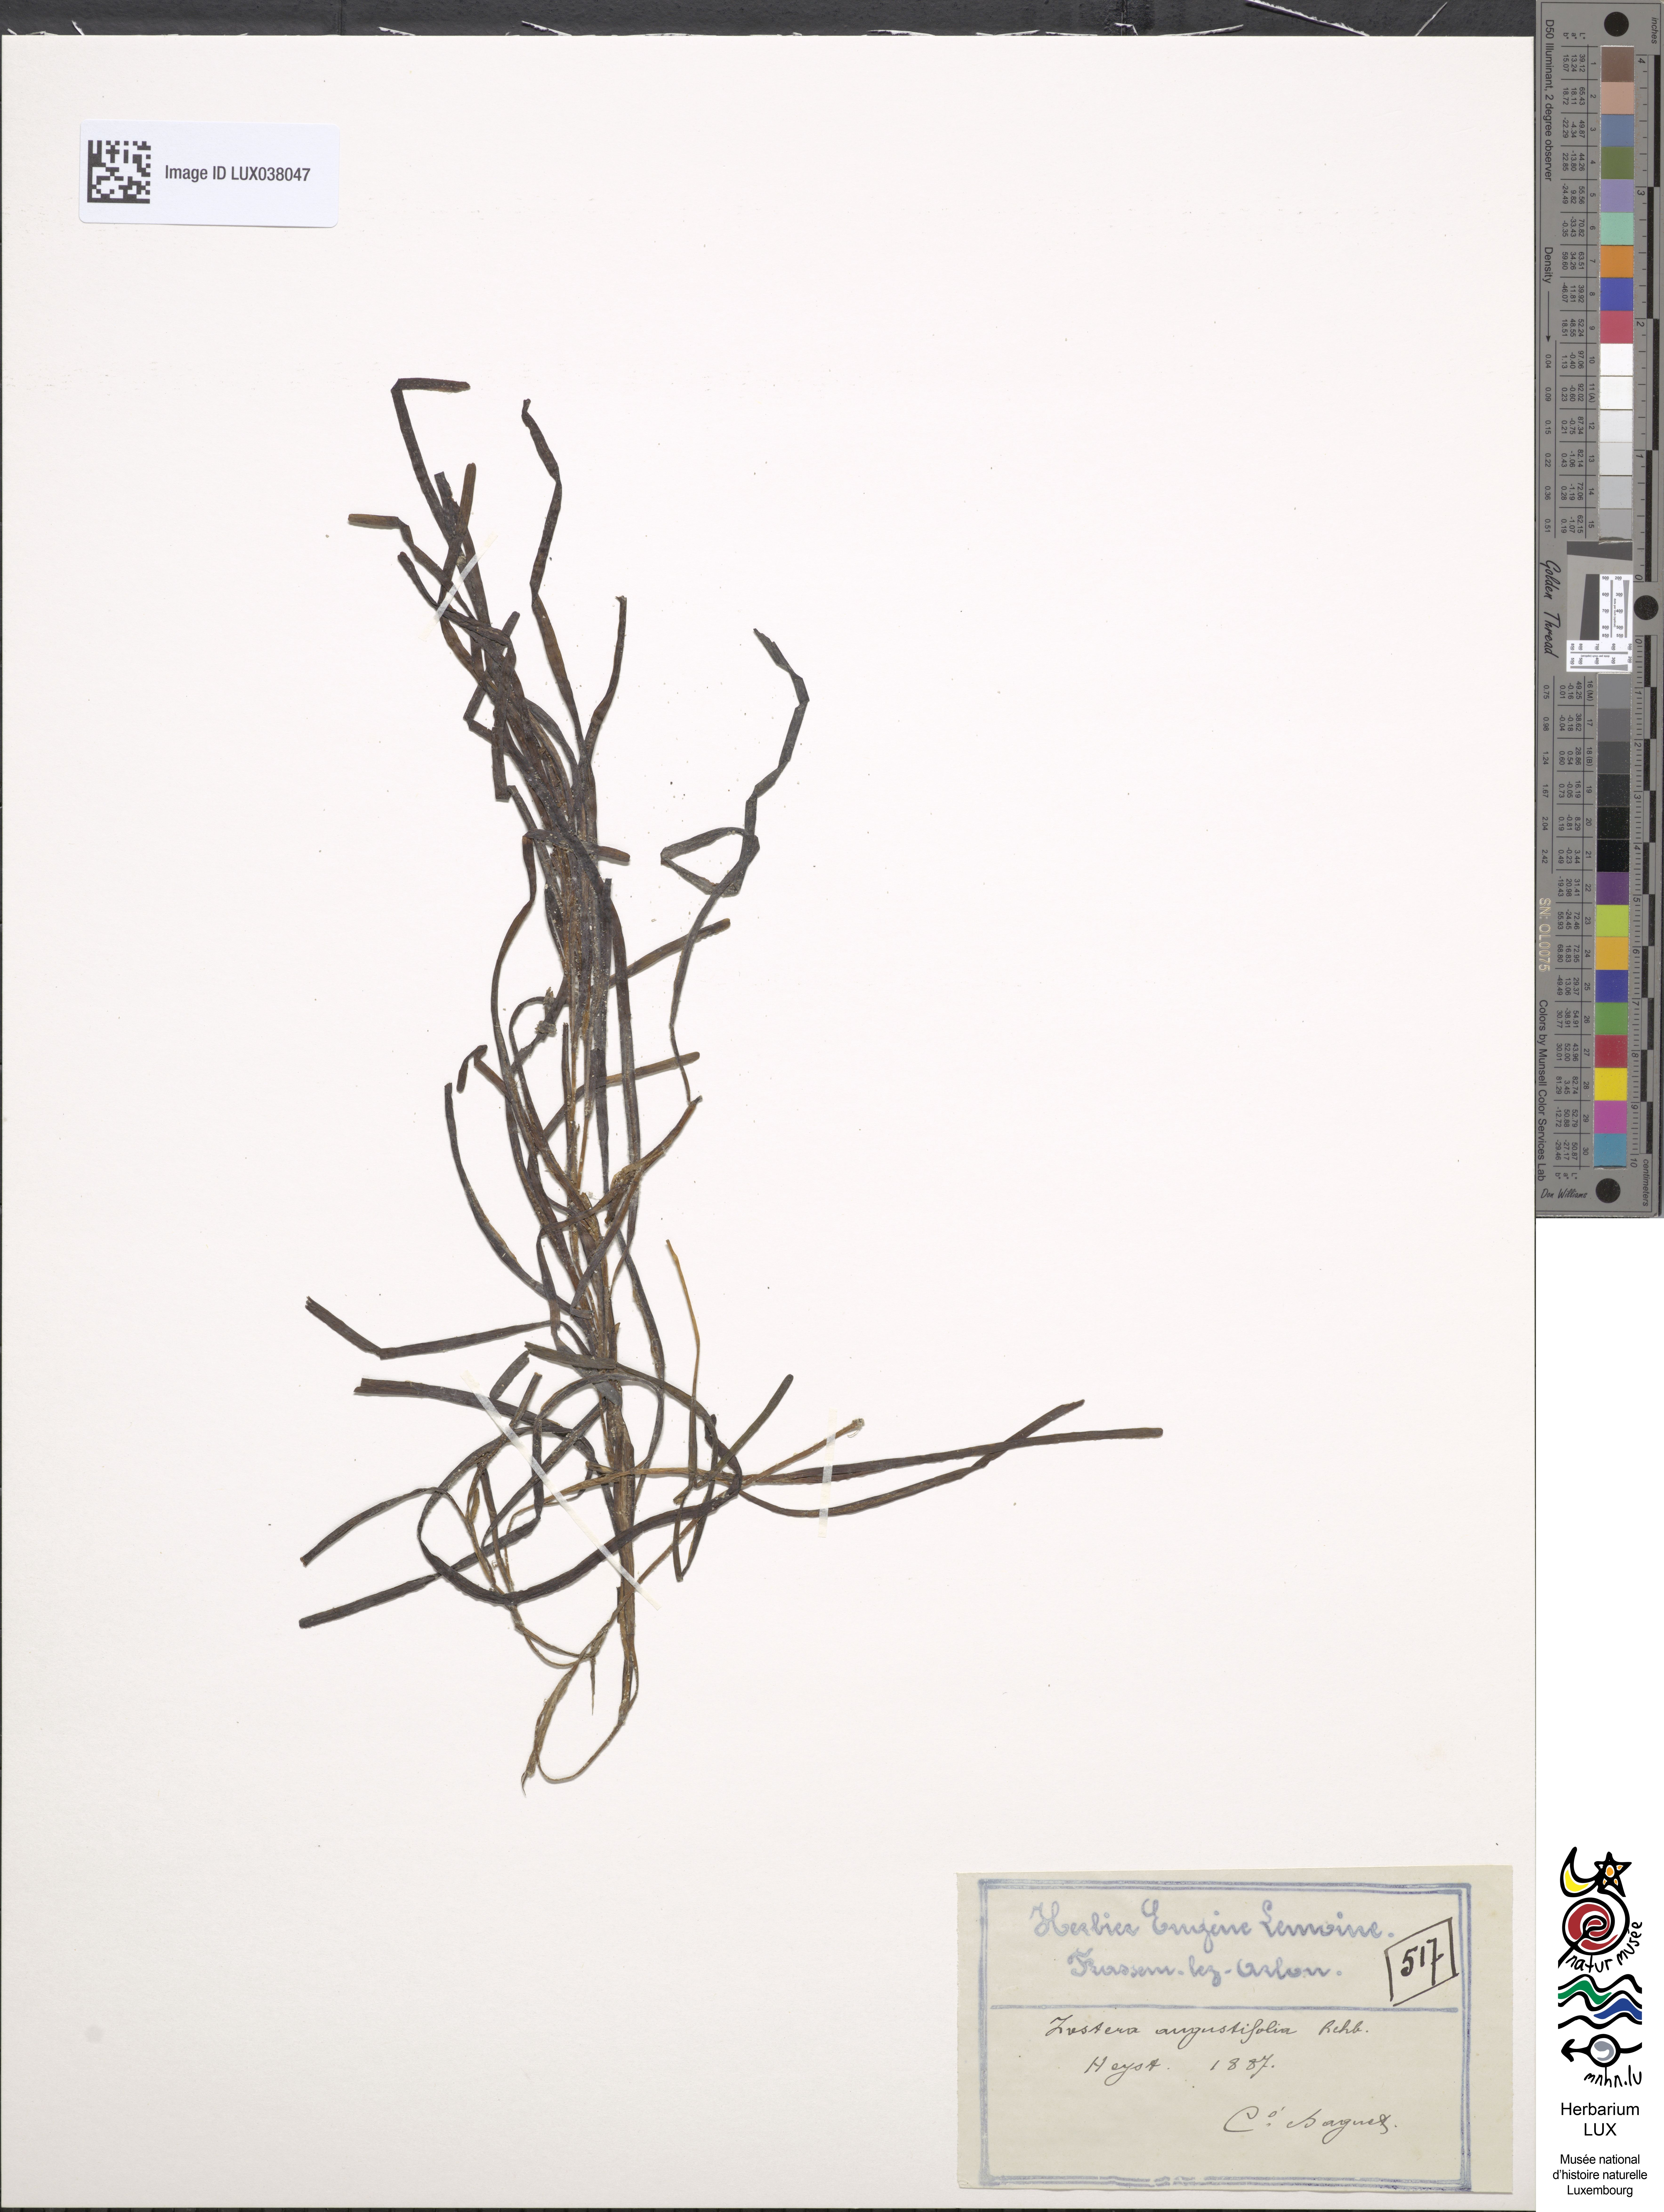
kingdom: Plantae
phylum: Tracheophyta
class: Liliopsida
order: Alismatales
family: Zosteraceae
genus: Zostera
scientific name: Zostera angustifolia
